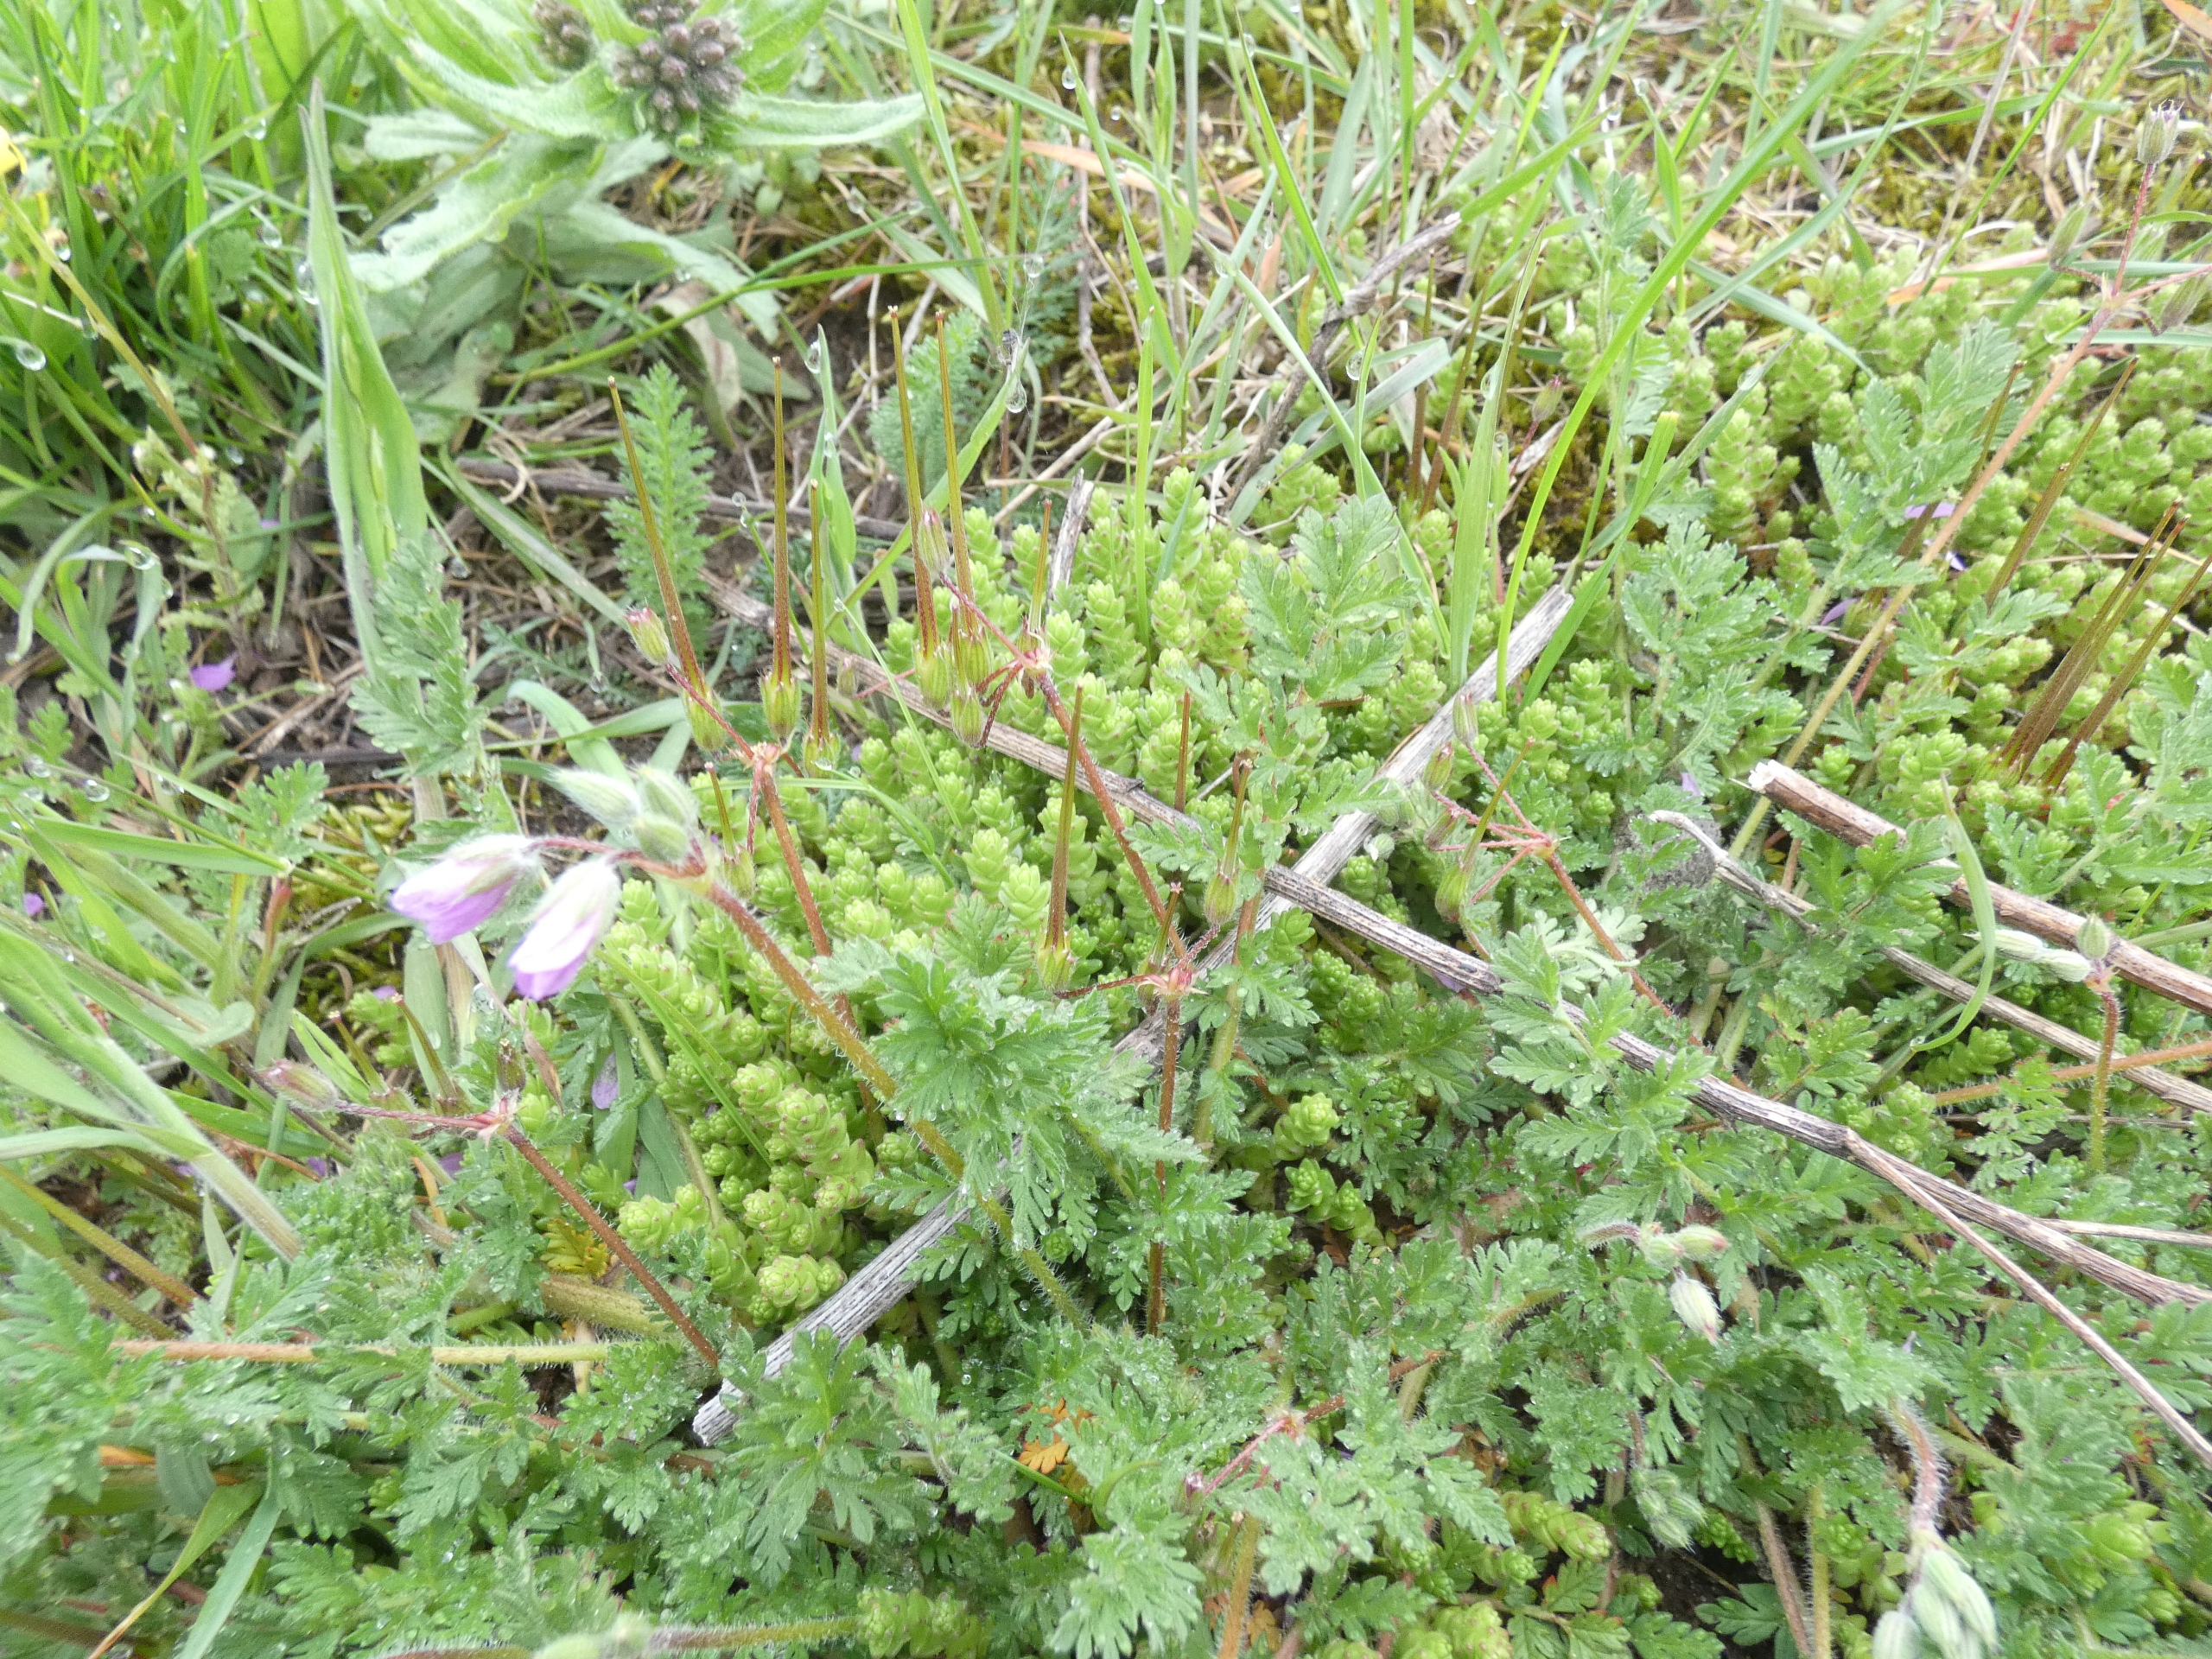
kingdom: Plantae
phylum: Tracheophyta
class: Magnoliopsida
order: Geraniales
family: Geraniaceae
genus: Erodium
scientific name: Erodium cicutarium
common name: Hejrenæb
